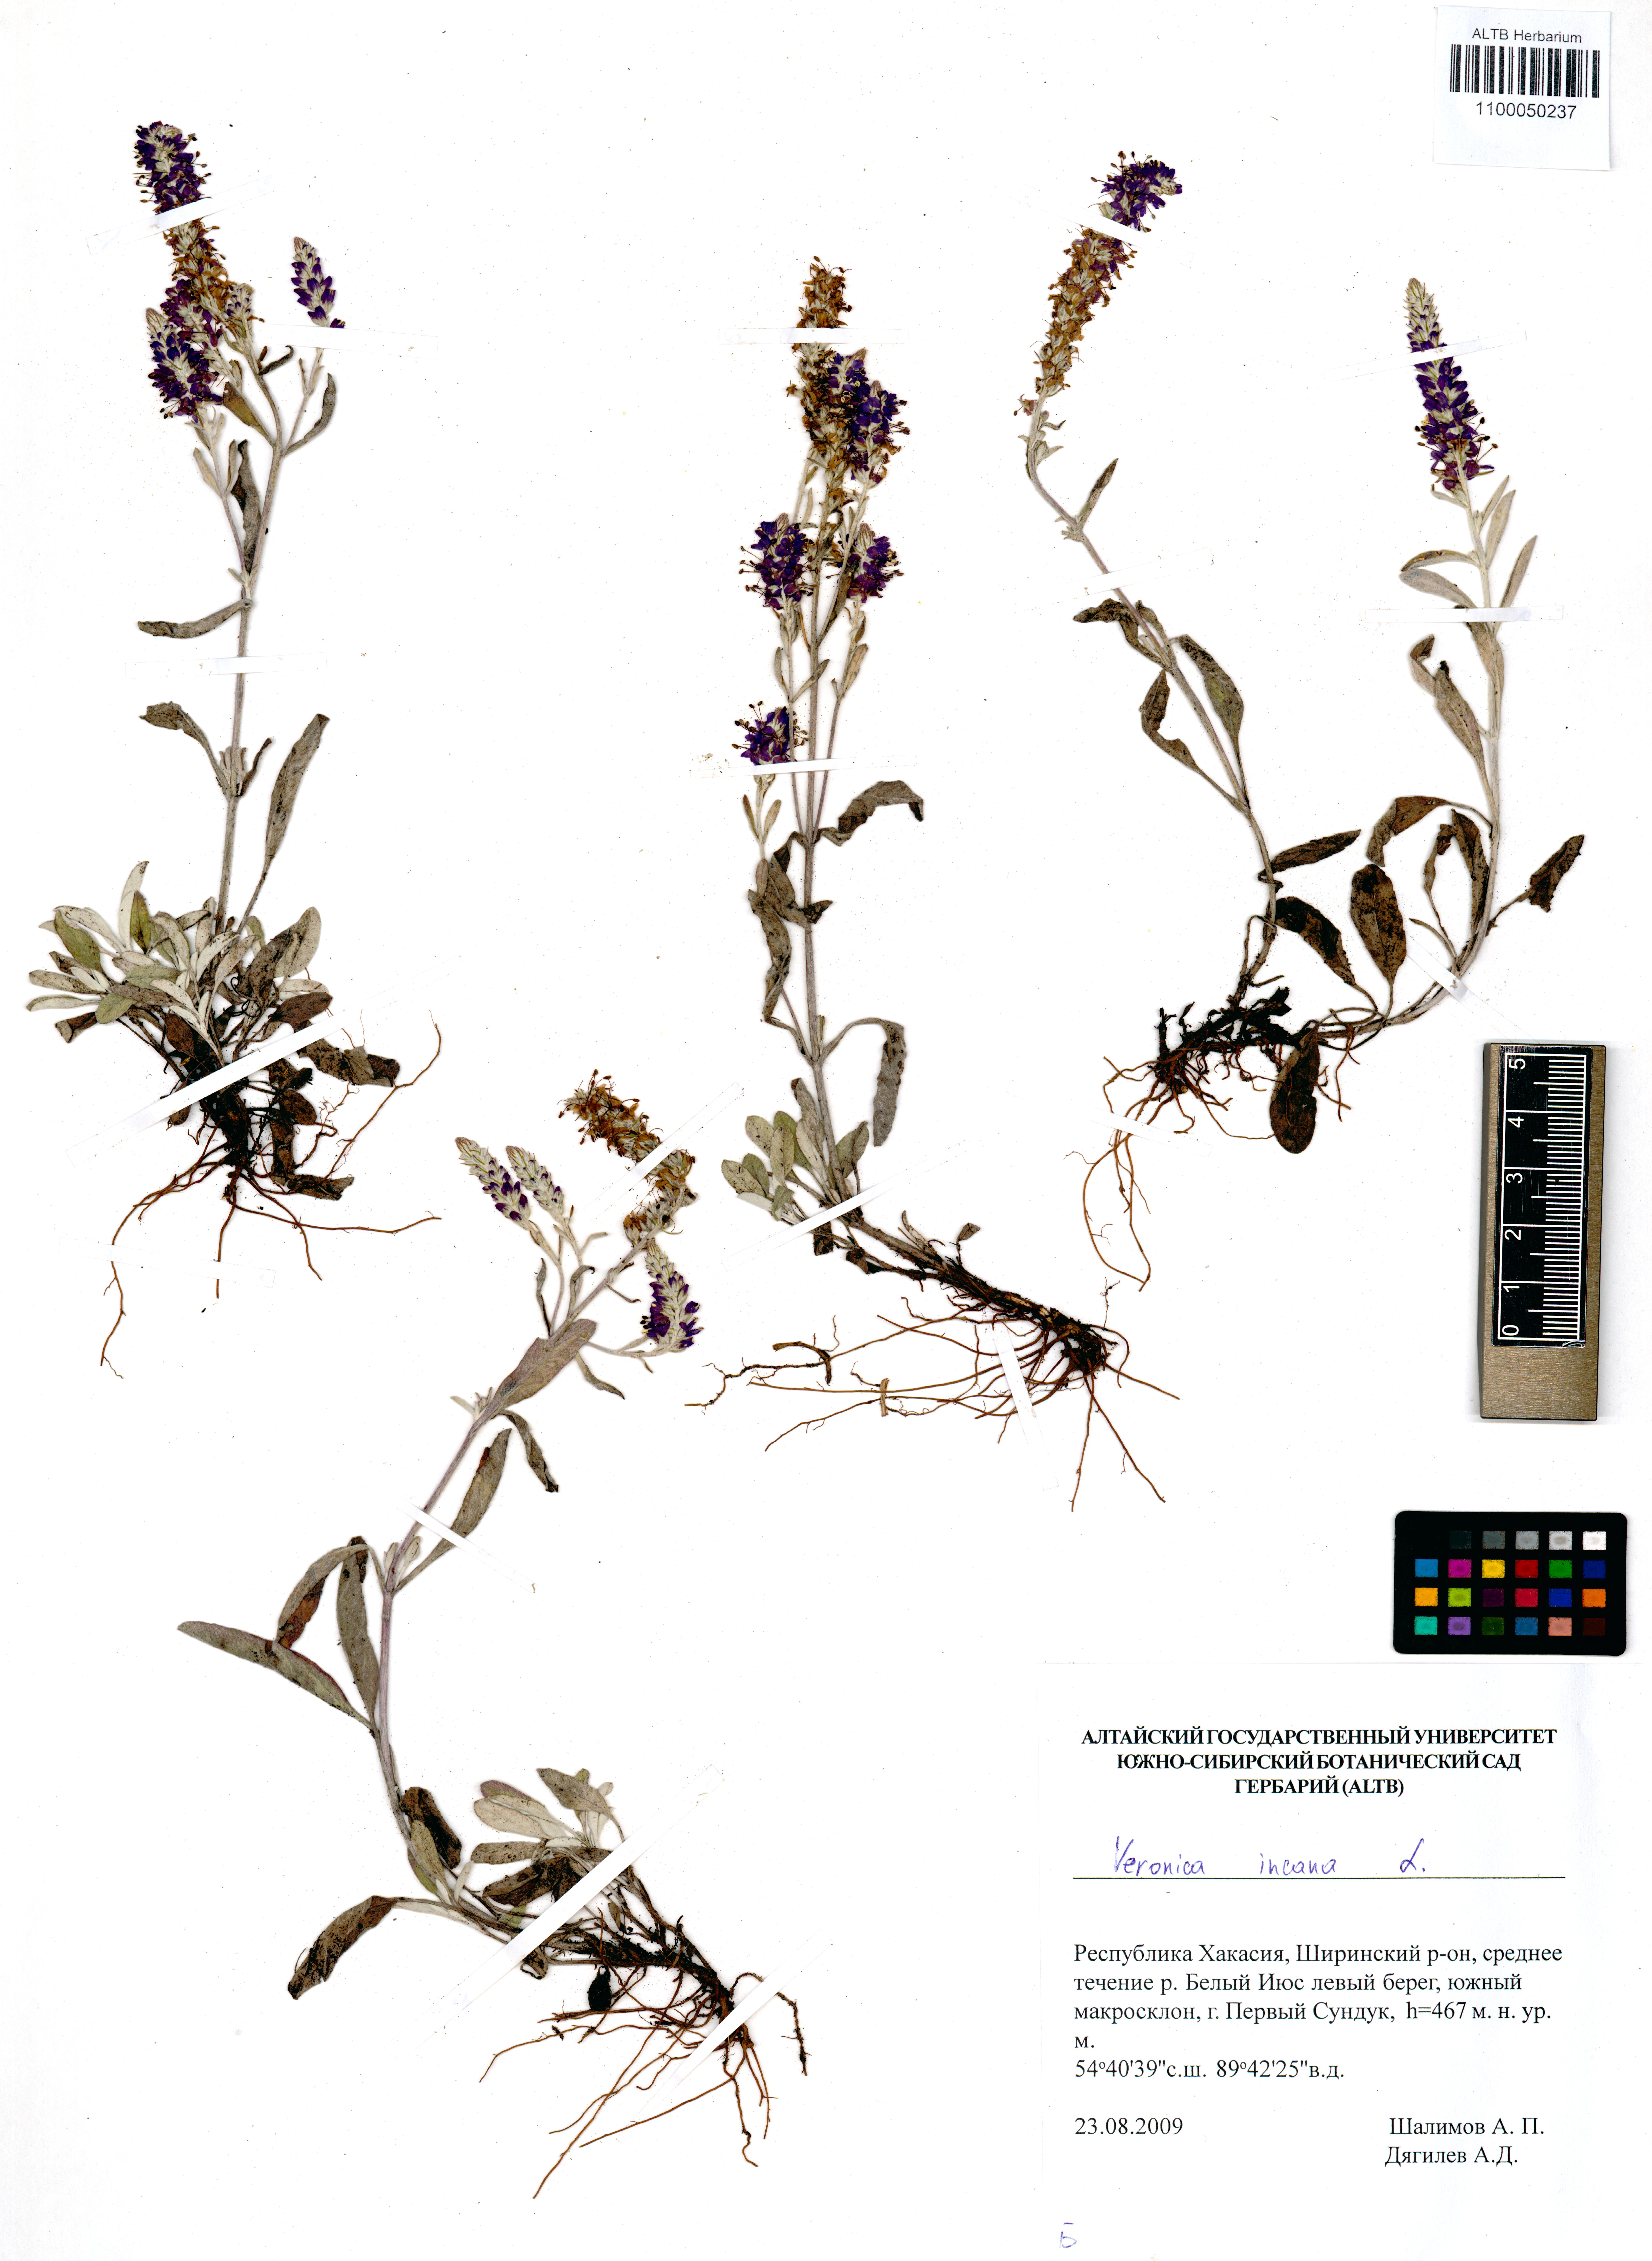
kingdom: Plantae
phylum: Tracheophyta
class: Magnoliopsida
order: Lamiales
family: Plantaginaceae
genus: Veronica
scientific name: Veronica incana
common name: Silver speedwell
